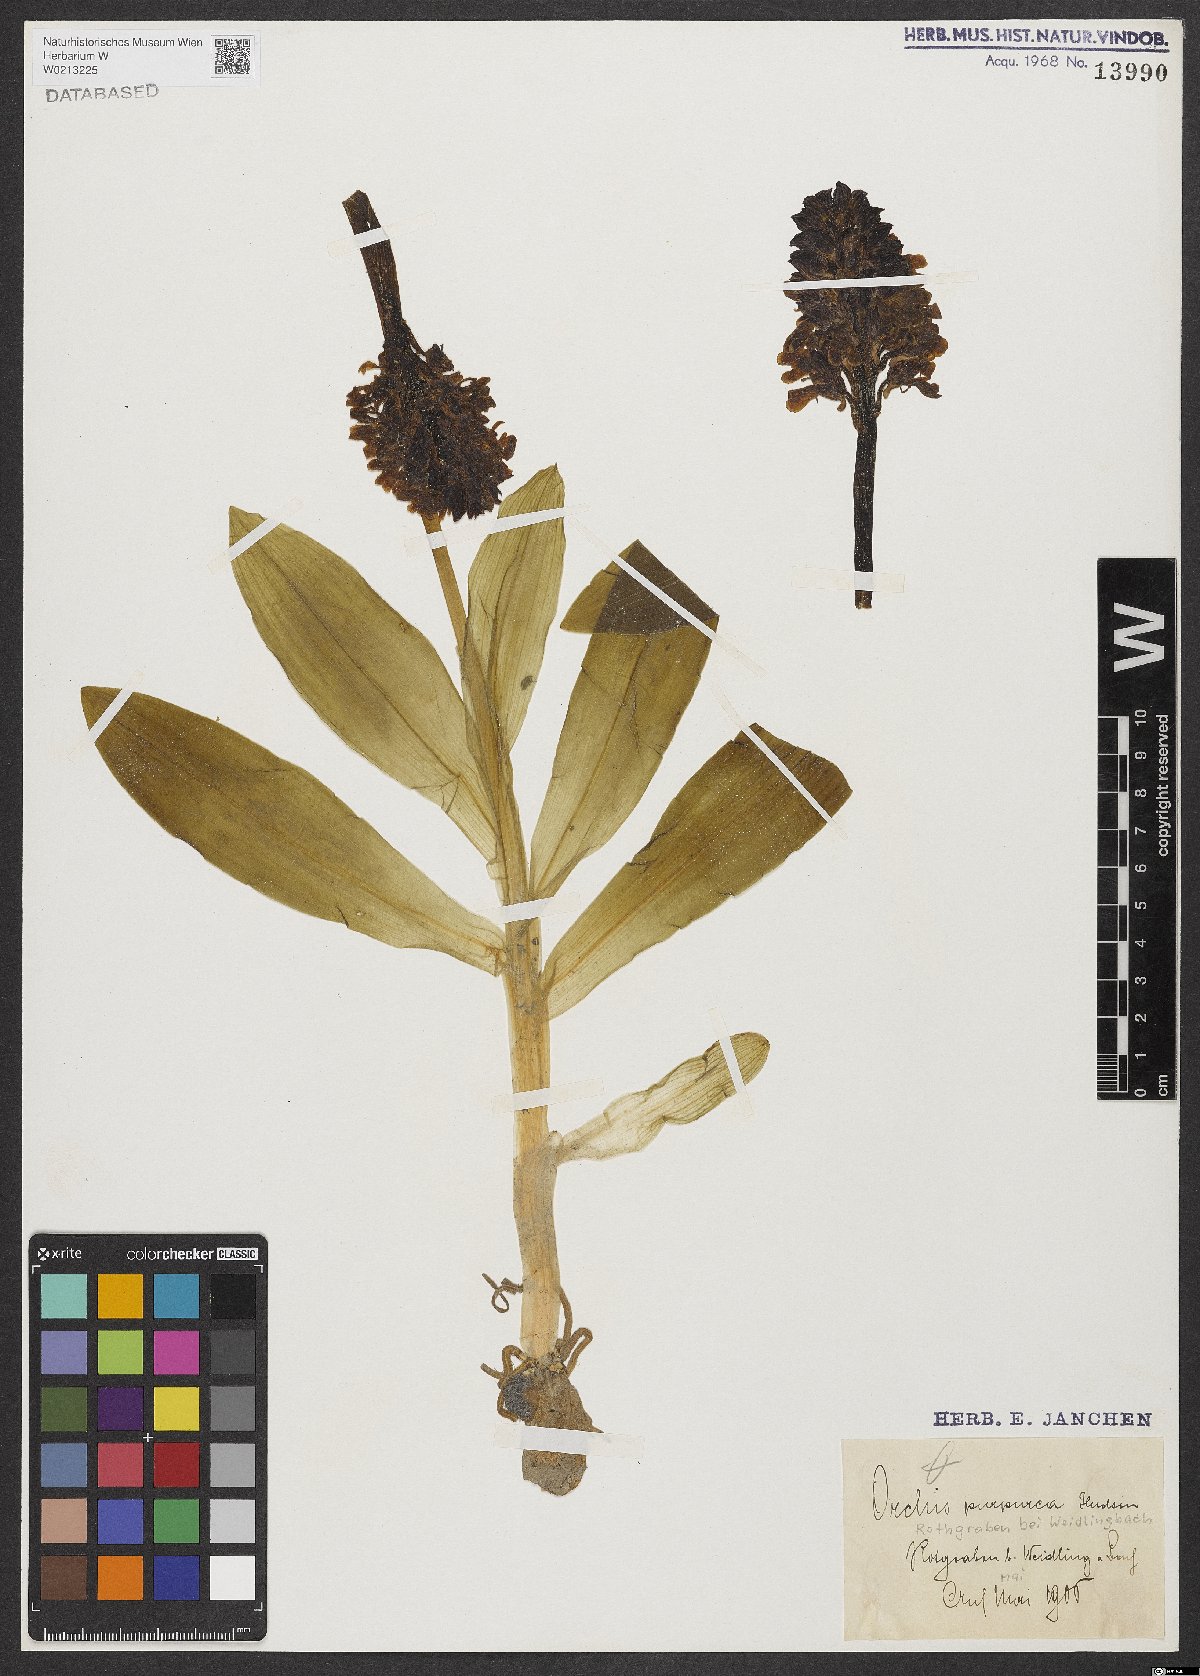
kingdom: Plantae
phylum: Tracheophyta
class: Liliopsida
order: Asparagales
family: Orchidaceae
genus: Orchis
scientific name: Orchis purpurea
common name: Lady orchid
